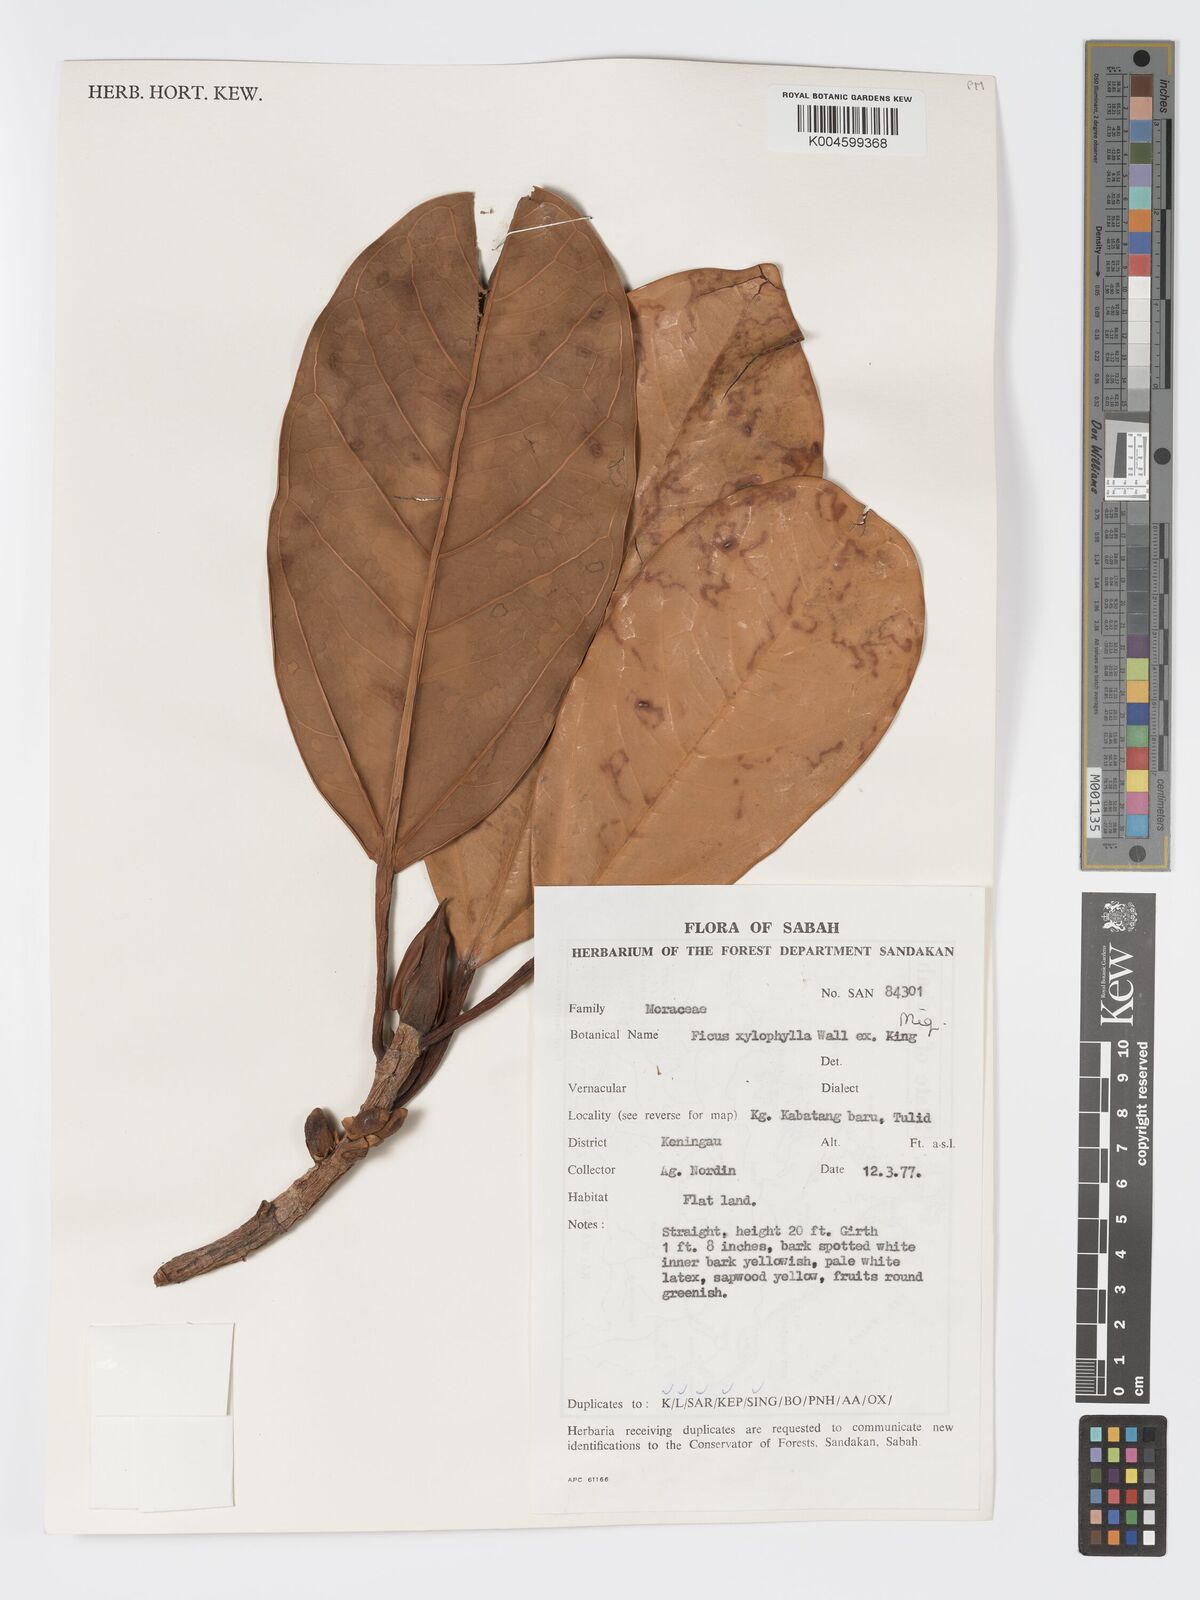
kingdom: Plantae
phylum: Tracheophyta
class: Magnoliopsida
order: Rosales
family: Moraceae
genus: Ficus
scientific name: Ficus xylophylla
